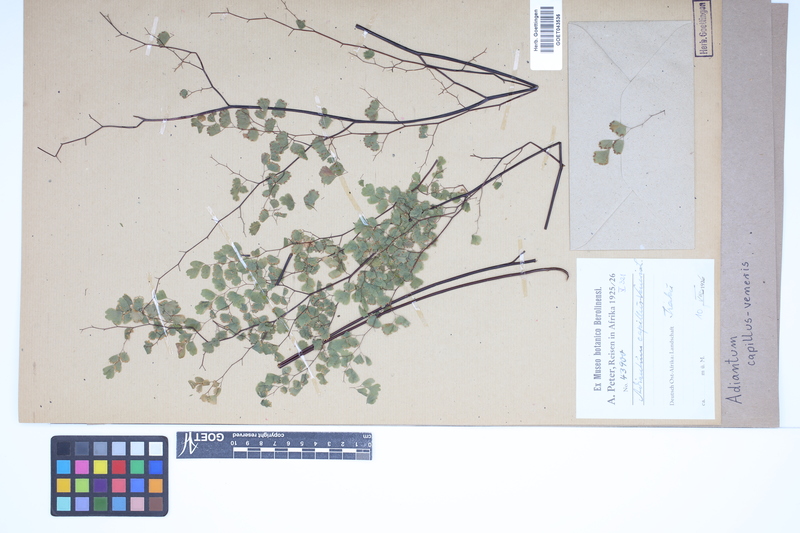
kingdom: Plantae
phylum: Tracheophyta
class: Polypodiopsida
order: Polypodiales
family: Pteridaceae
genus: Adiantum
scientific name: Adiantum capillus-veneris
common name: Maidenhair fern
